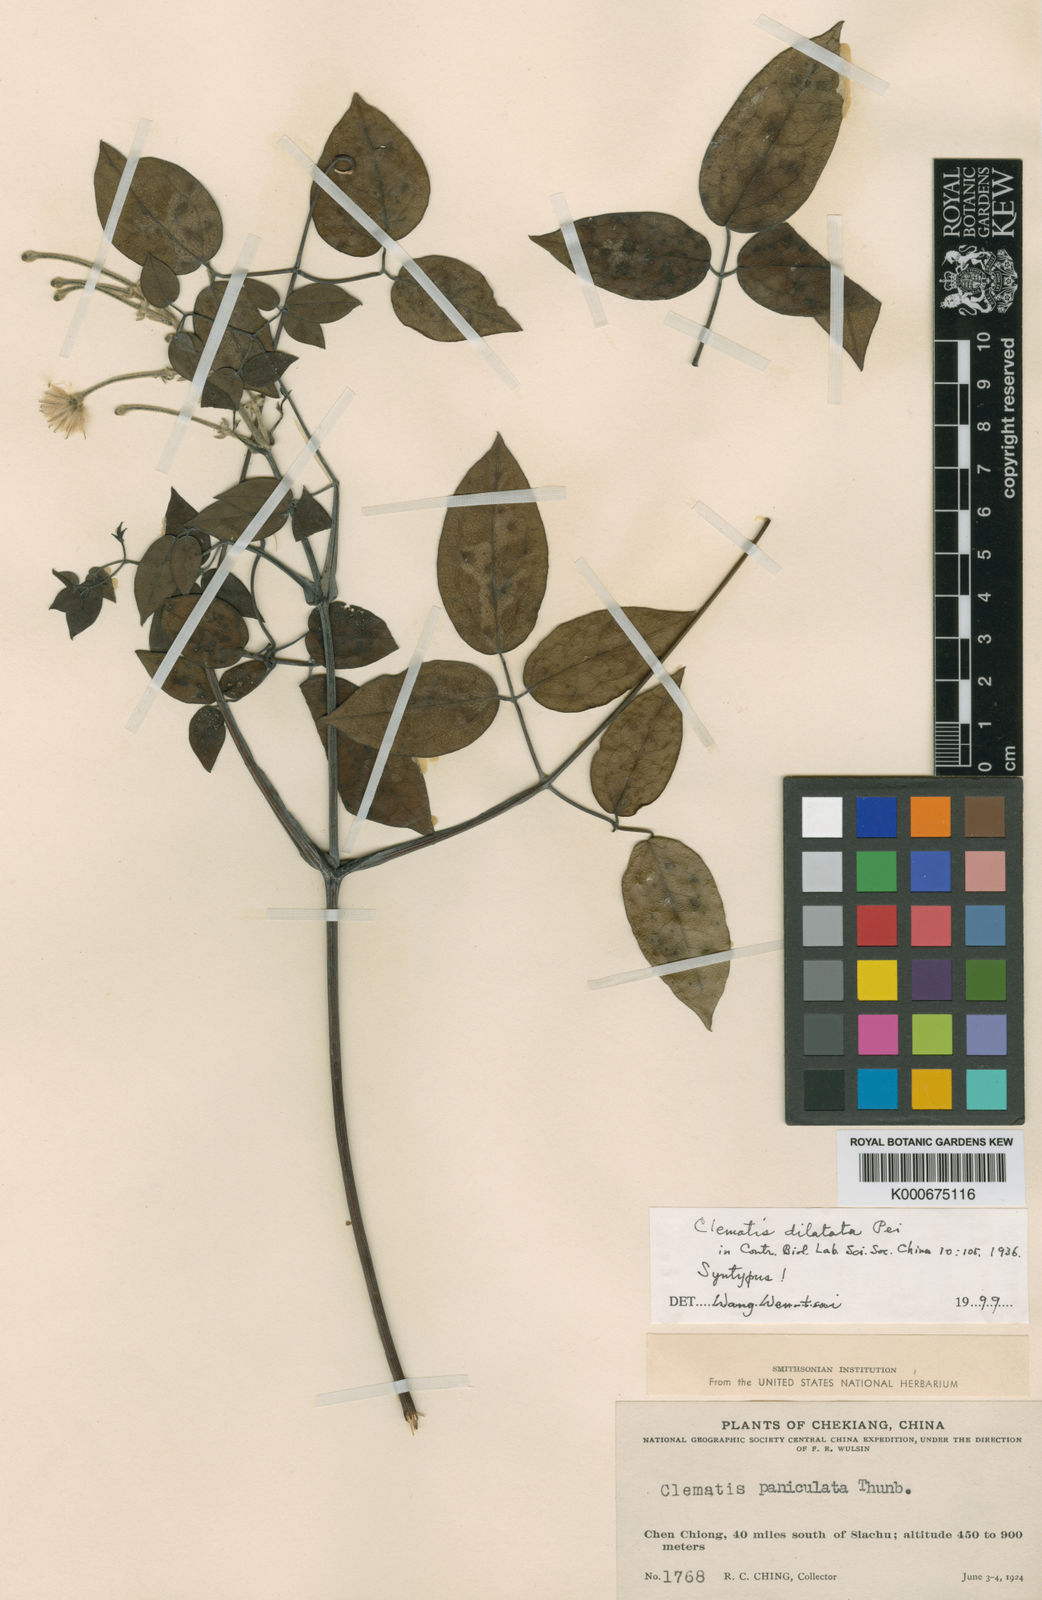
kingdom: Plantae
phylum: Tracheophyta
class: Magnoliopsida
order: Ranunculales
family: Ranunculaceae
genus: Clematis
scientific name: Clematis dilatata
